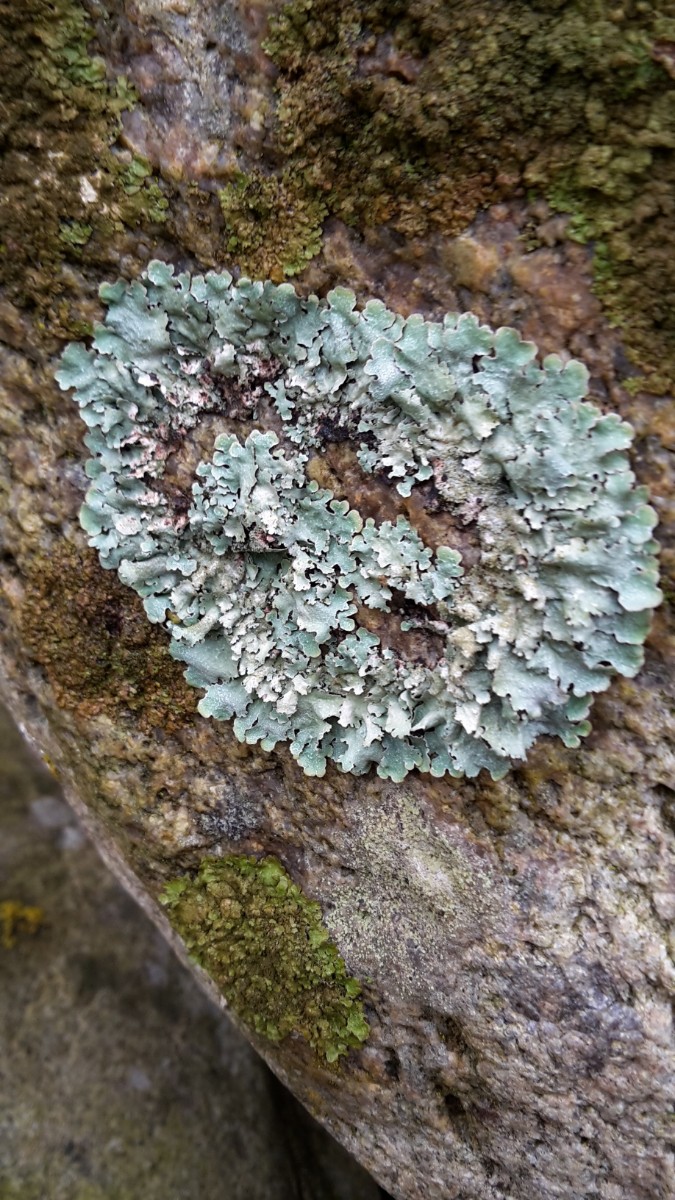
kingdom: Fungi
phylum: Ascomycota
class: Lecanoromycetes
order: Lecanorales
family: Parmeliaceae
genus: Parmelia
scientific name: Parmelia sulcata
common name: rynket skållav
